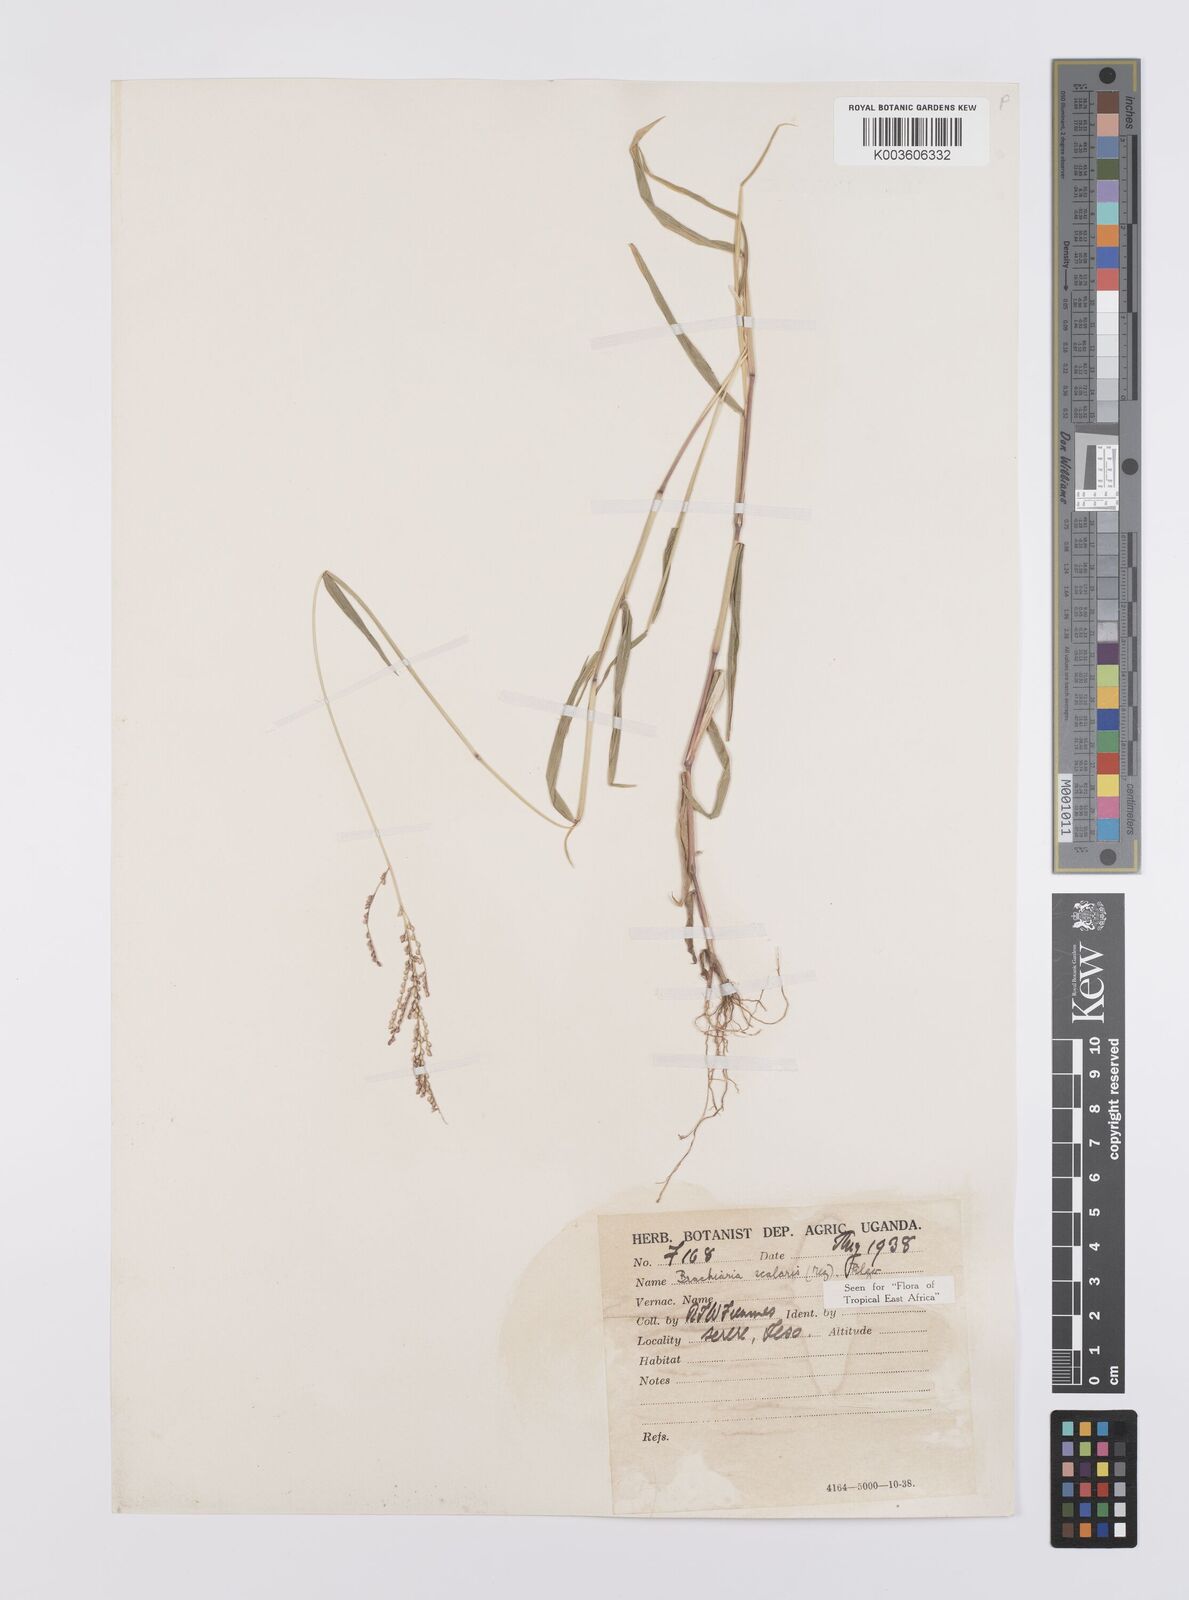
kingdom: Plantae
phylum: Tracheophyta
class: Liliopsida
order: Poales
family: Poaceae
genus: Urochloa
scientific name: Urochloa comata
